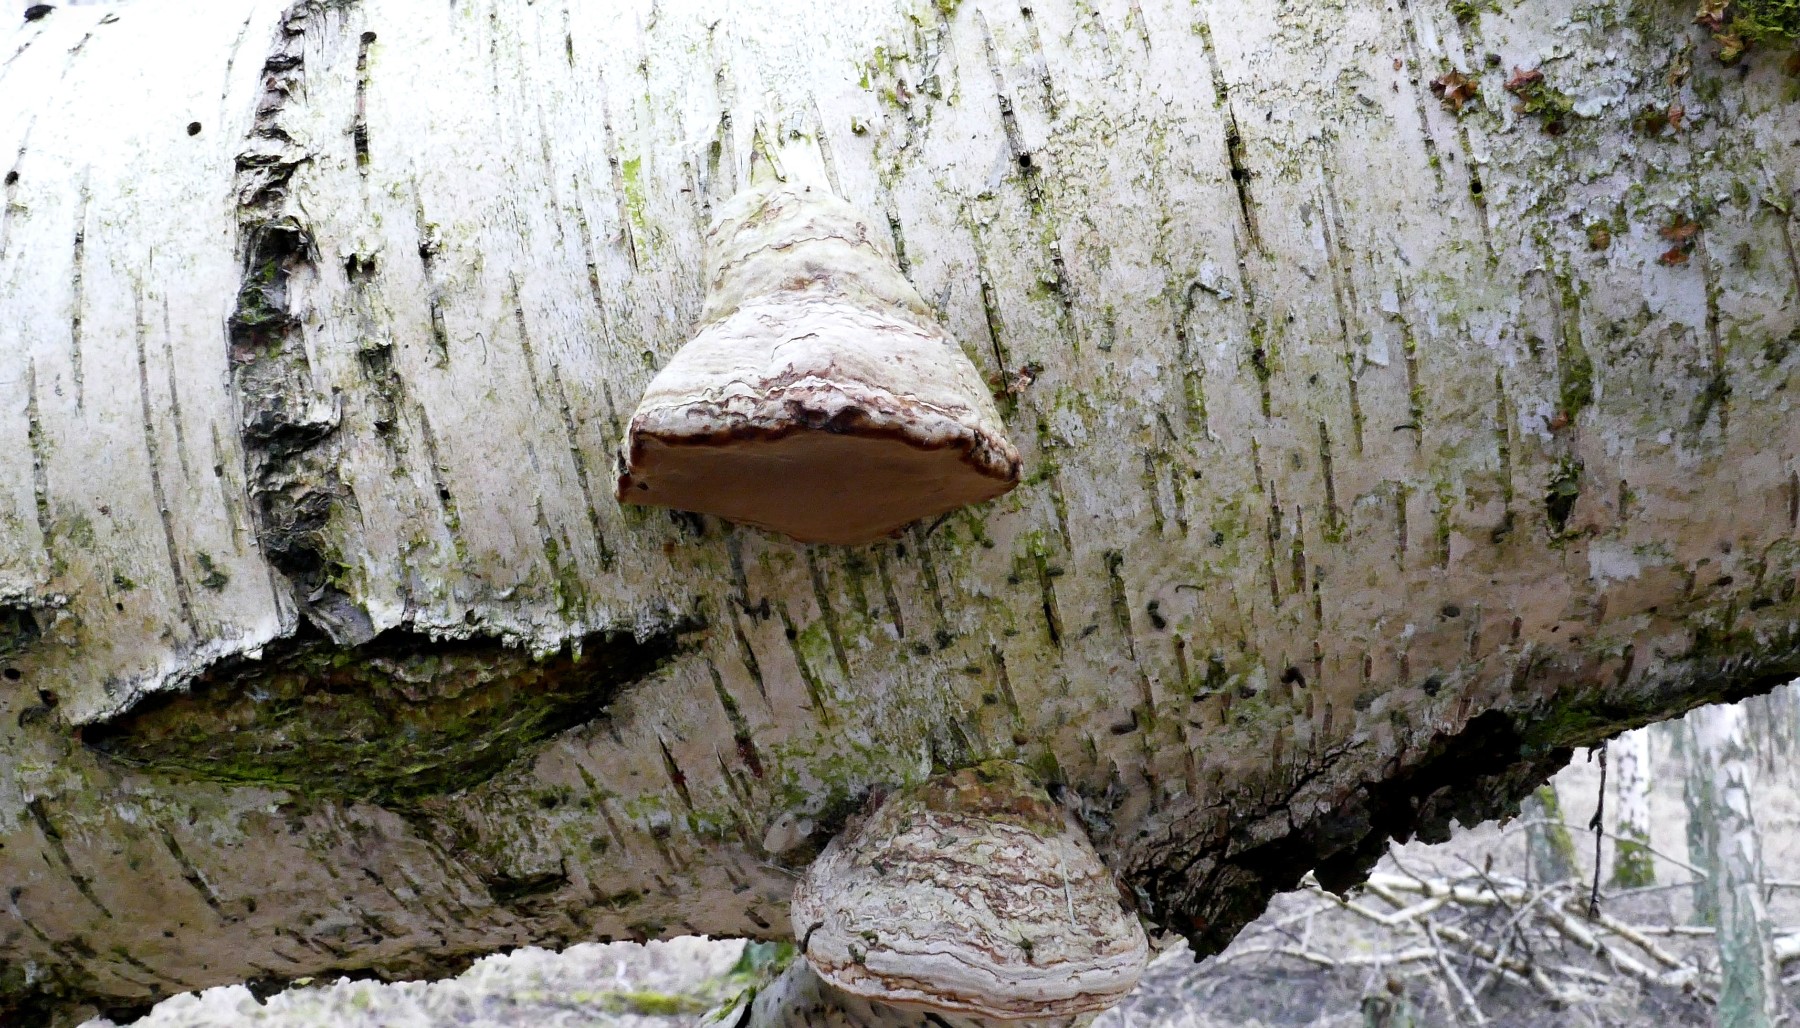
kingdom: Fungi
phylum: Basidiomycota
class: Agaricomycetes
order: Polyporales
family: Polyporaceae
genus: Fomes
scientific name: Fomes fomentarius
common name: tøndersvamp
